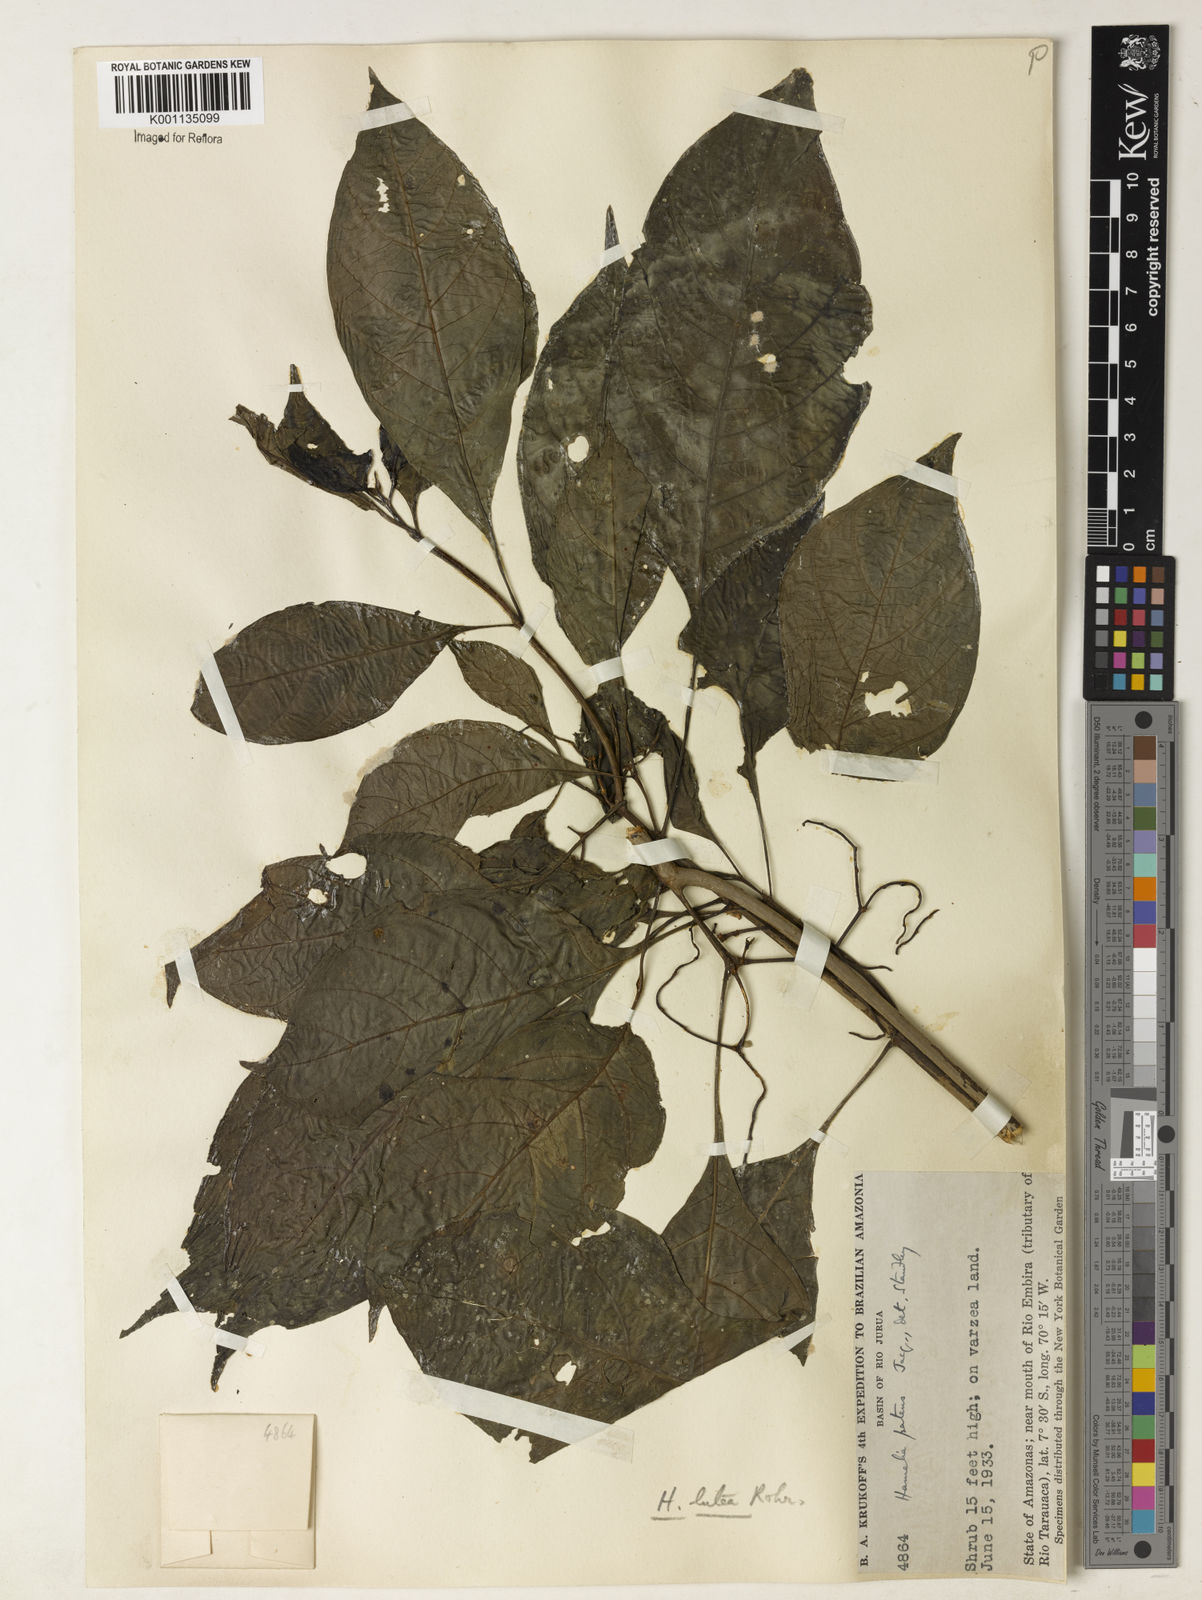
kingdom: Plantae
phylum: Tracheophyta
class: Magnoliopsida
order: Gentianales
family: Rubiaceae
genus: Hamelia
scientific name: Hamelia axillaris
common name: Balsamillo
